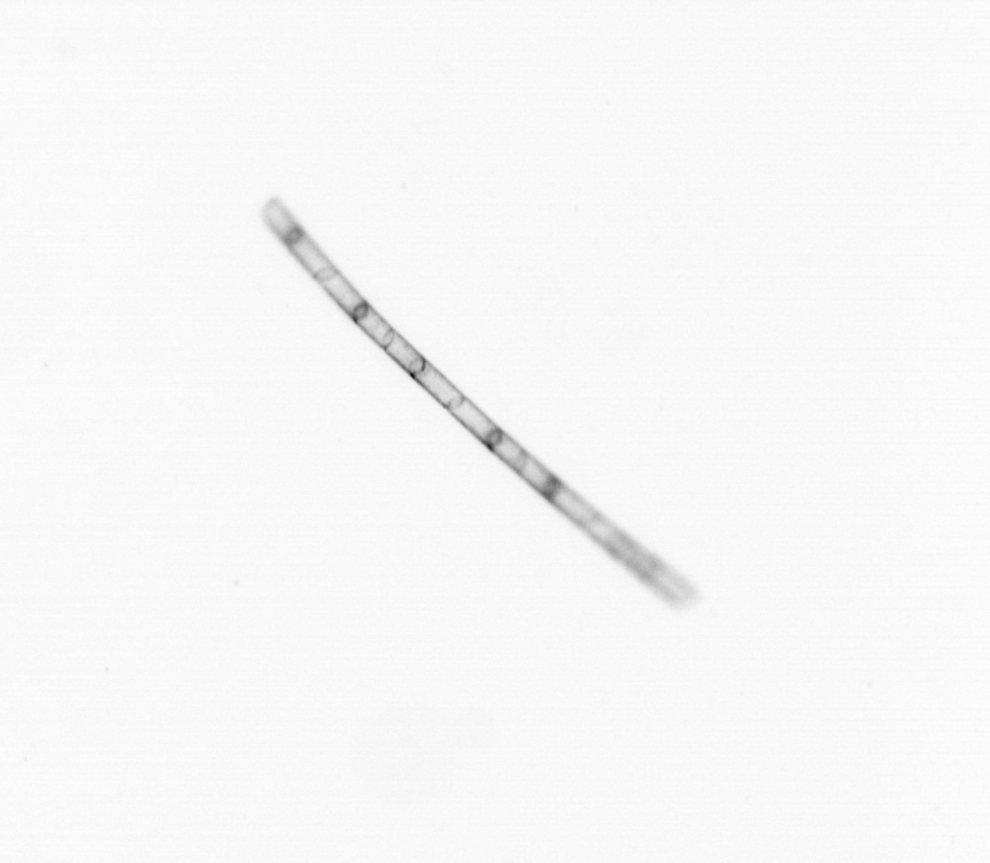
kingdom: Chromista
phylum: Ochrophyta
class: Bacillariophyceae
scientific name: Bacillariophyceae
